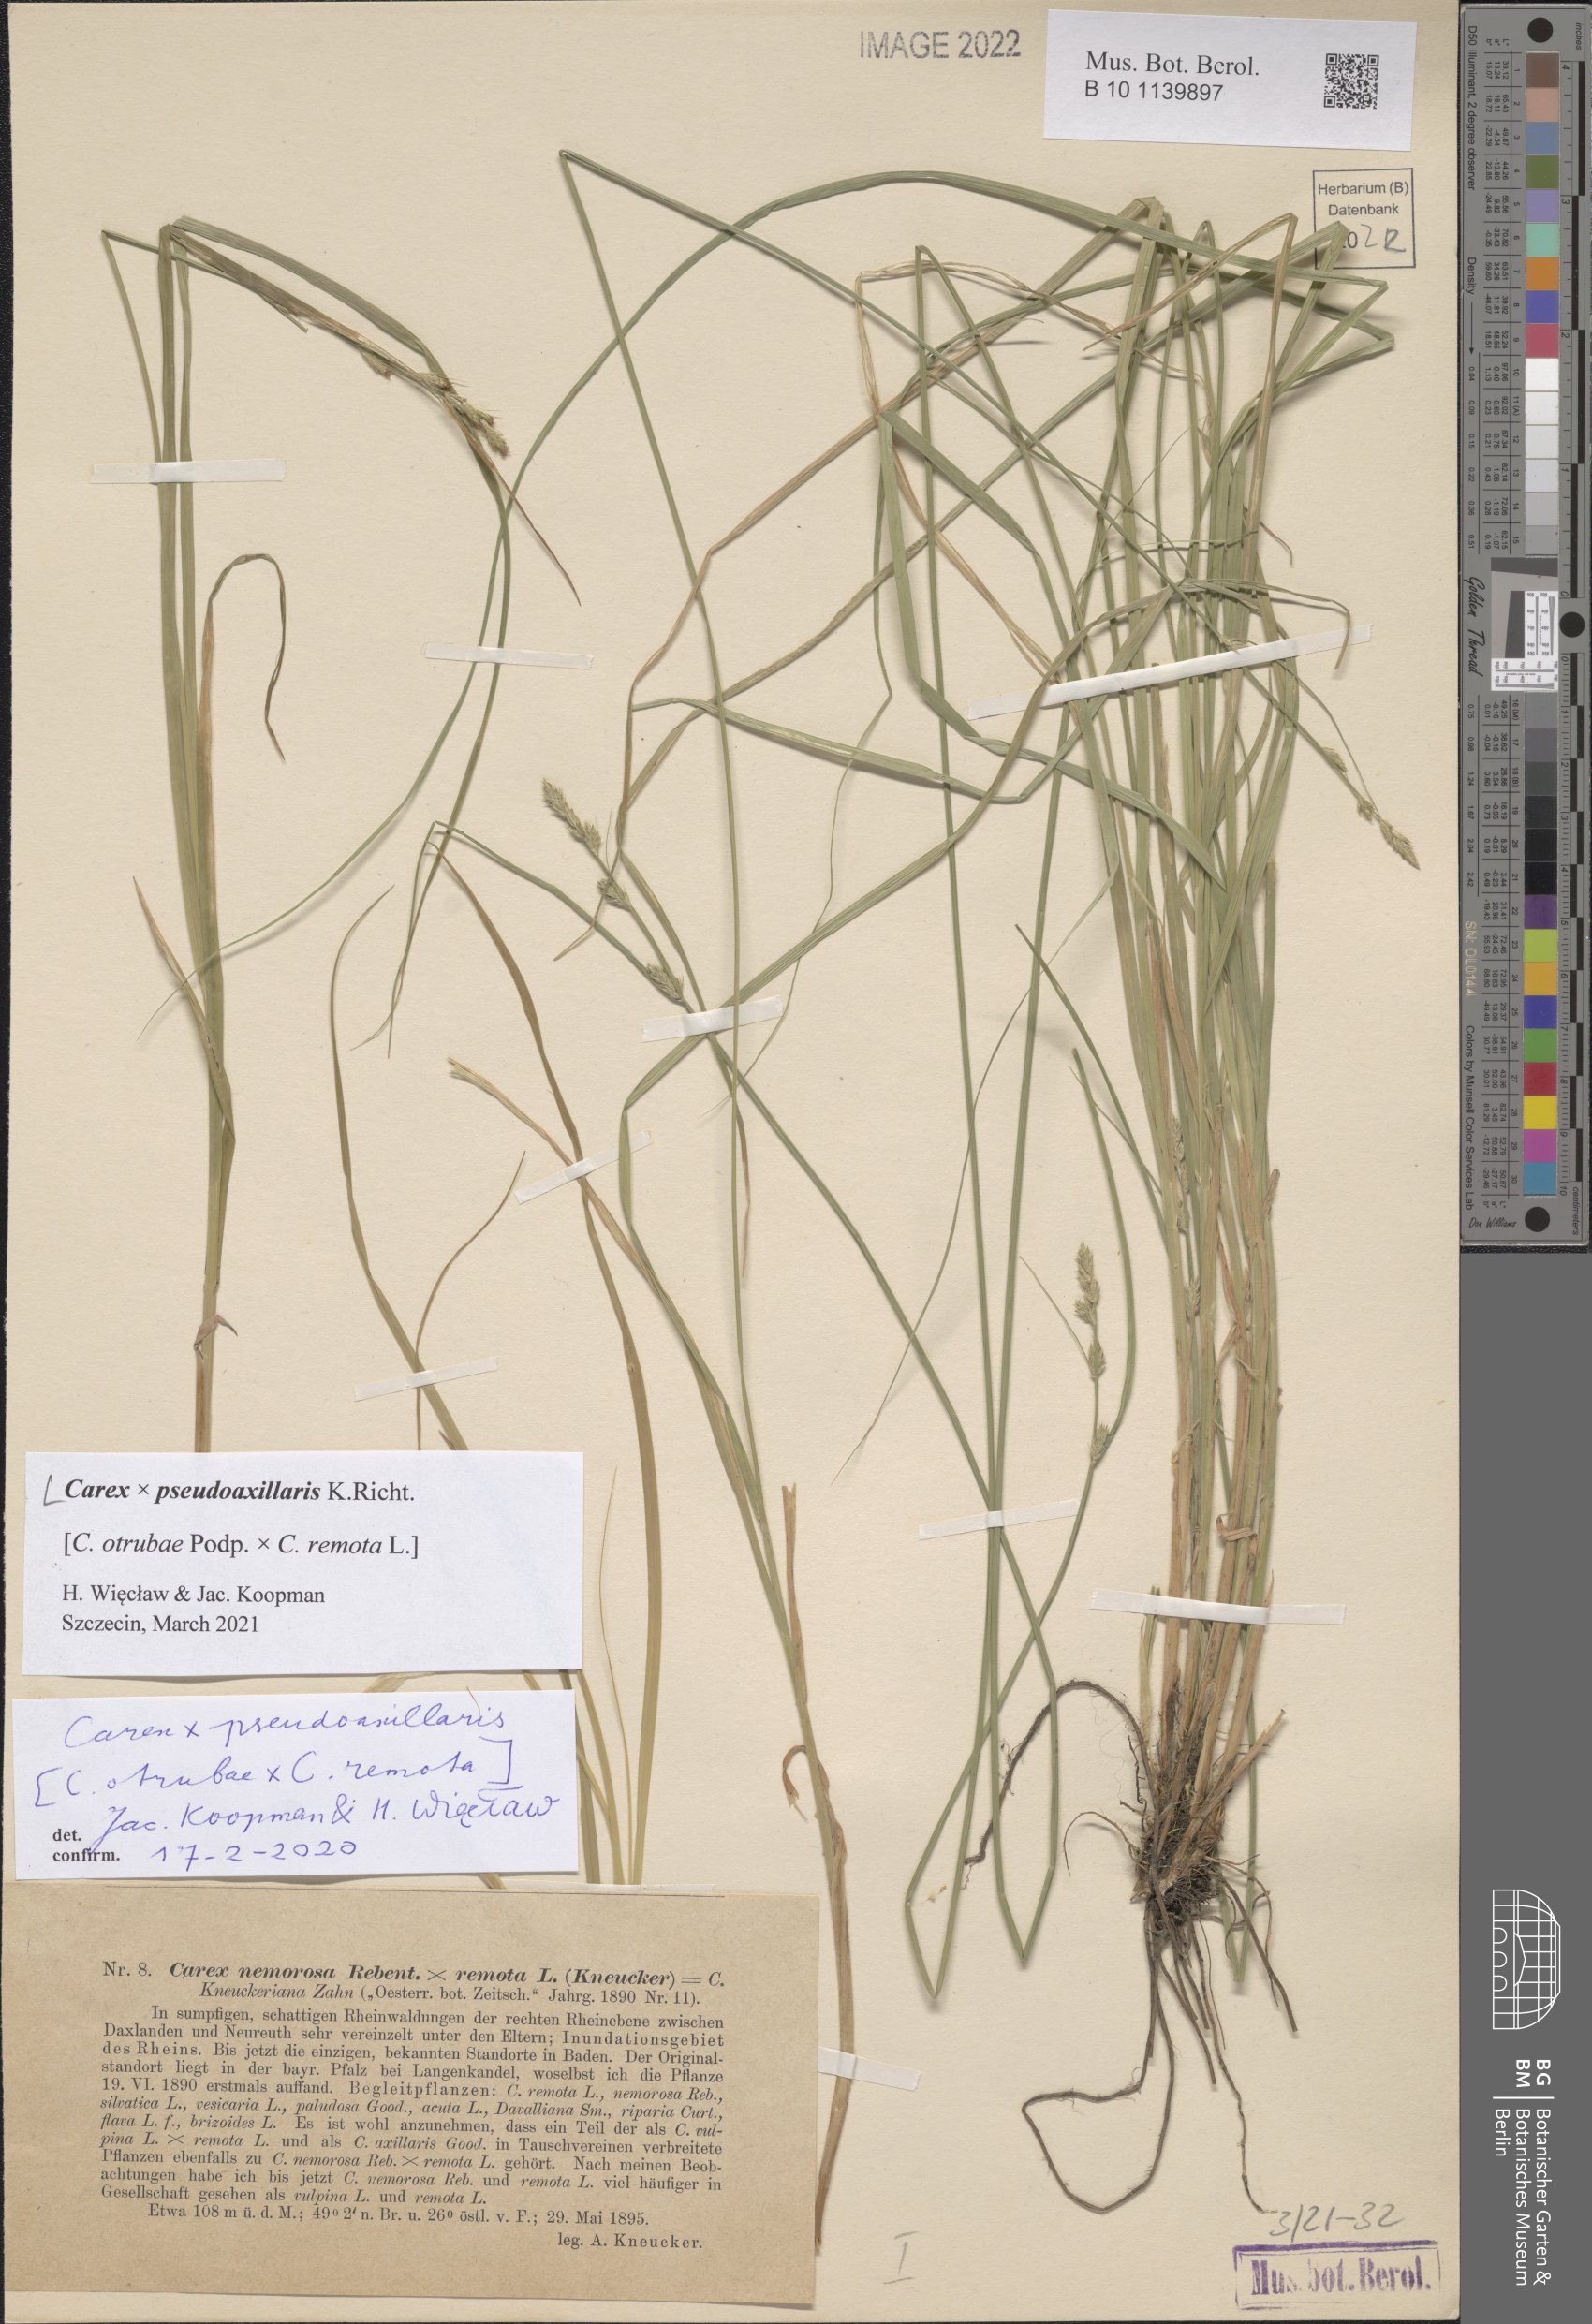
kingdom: Plantae
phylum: Tracheophyta
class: Liliopsida
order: Poales
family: Cyperaceae
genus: Carex
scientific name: Carex pseudoaxillaris
